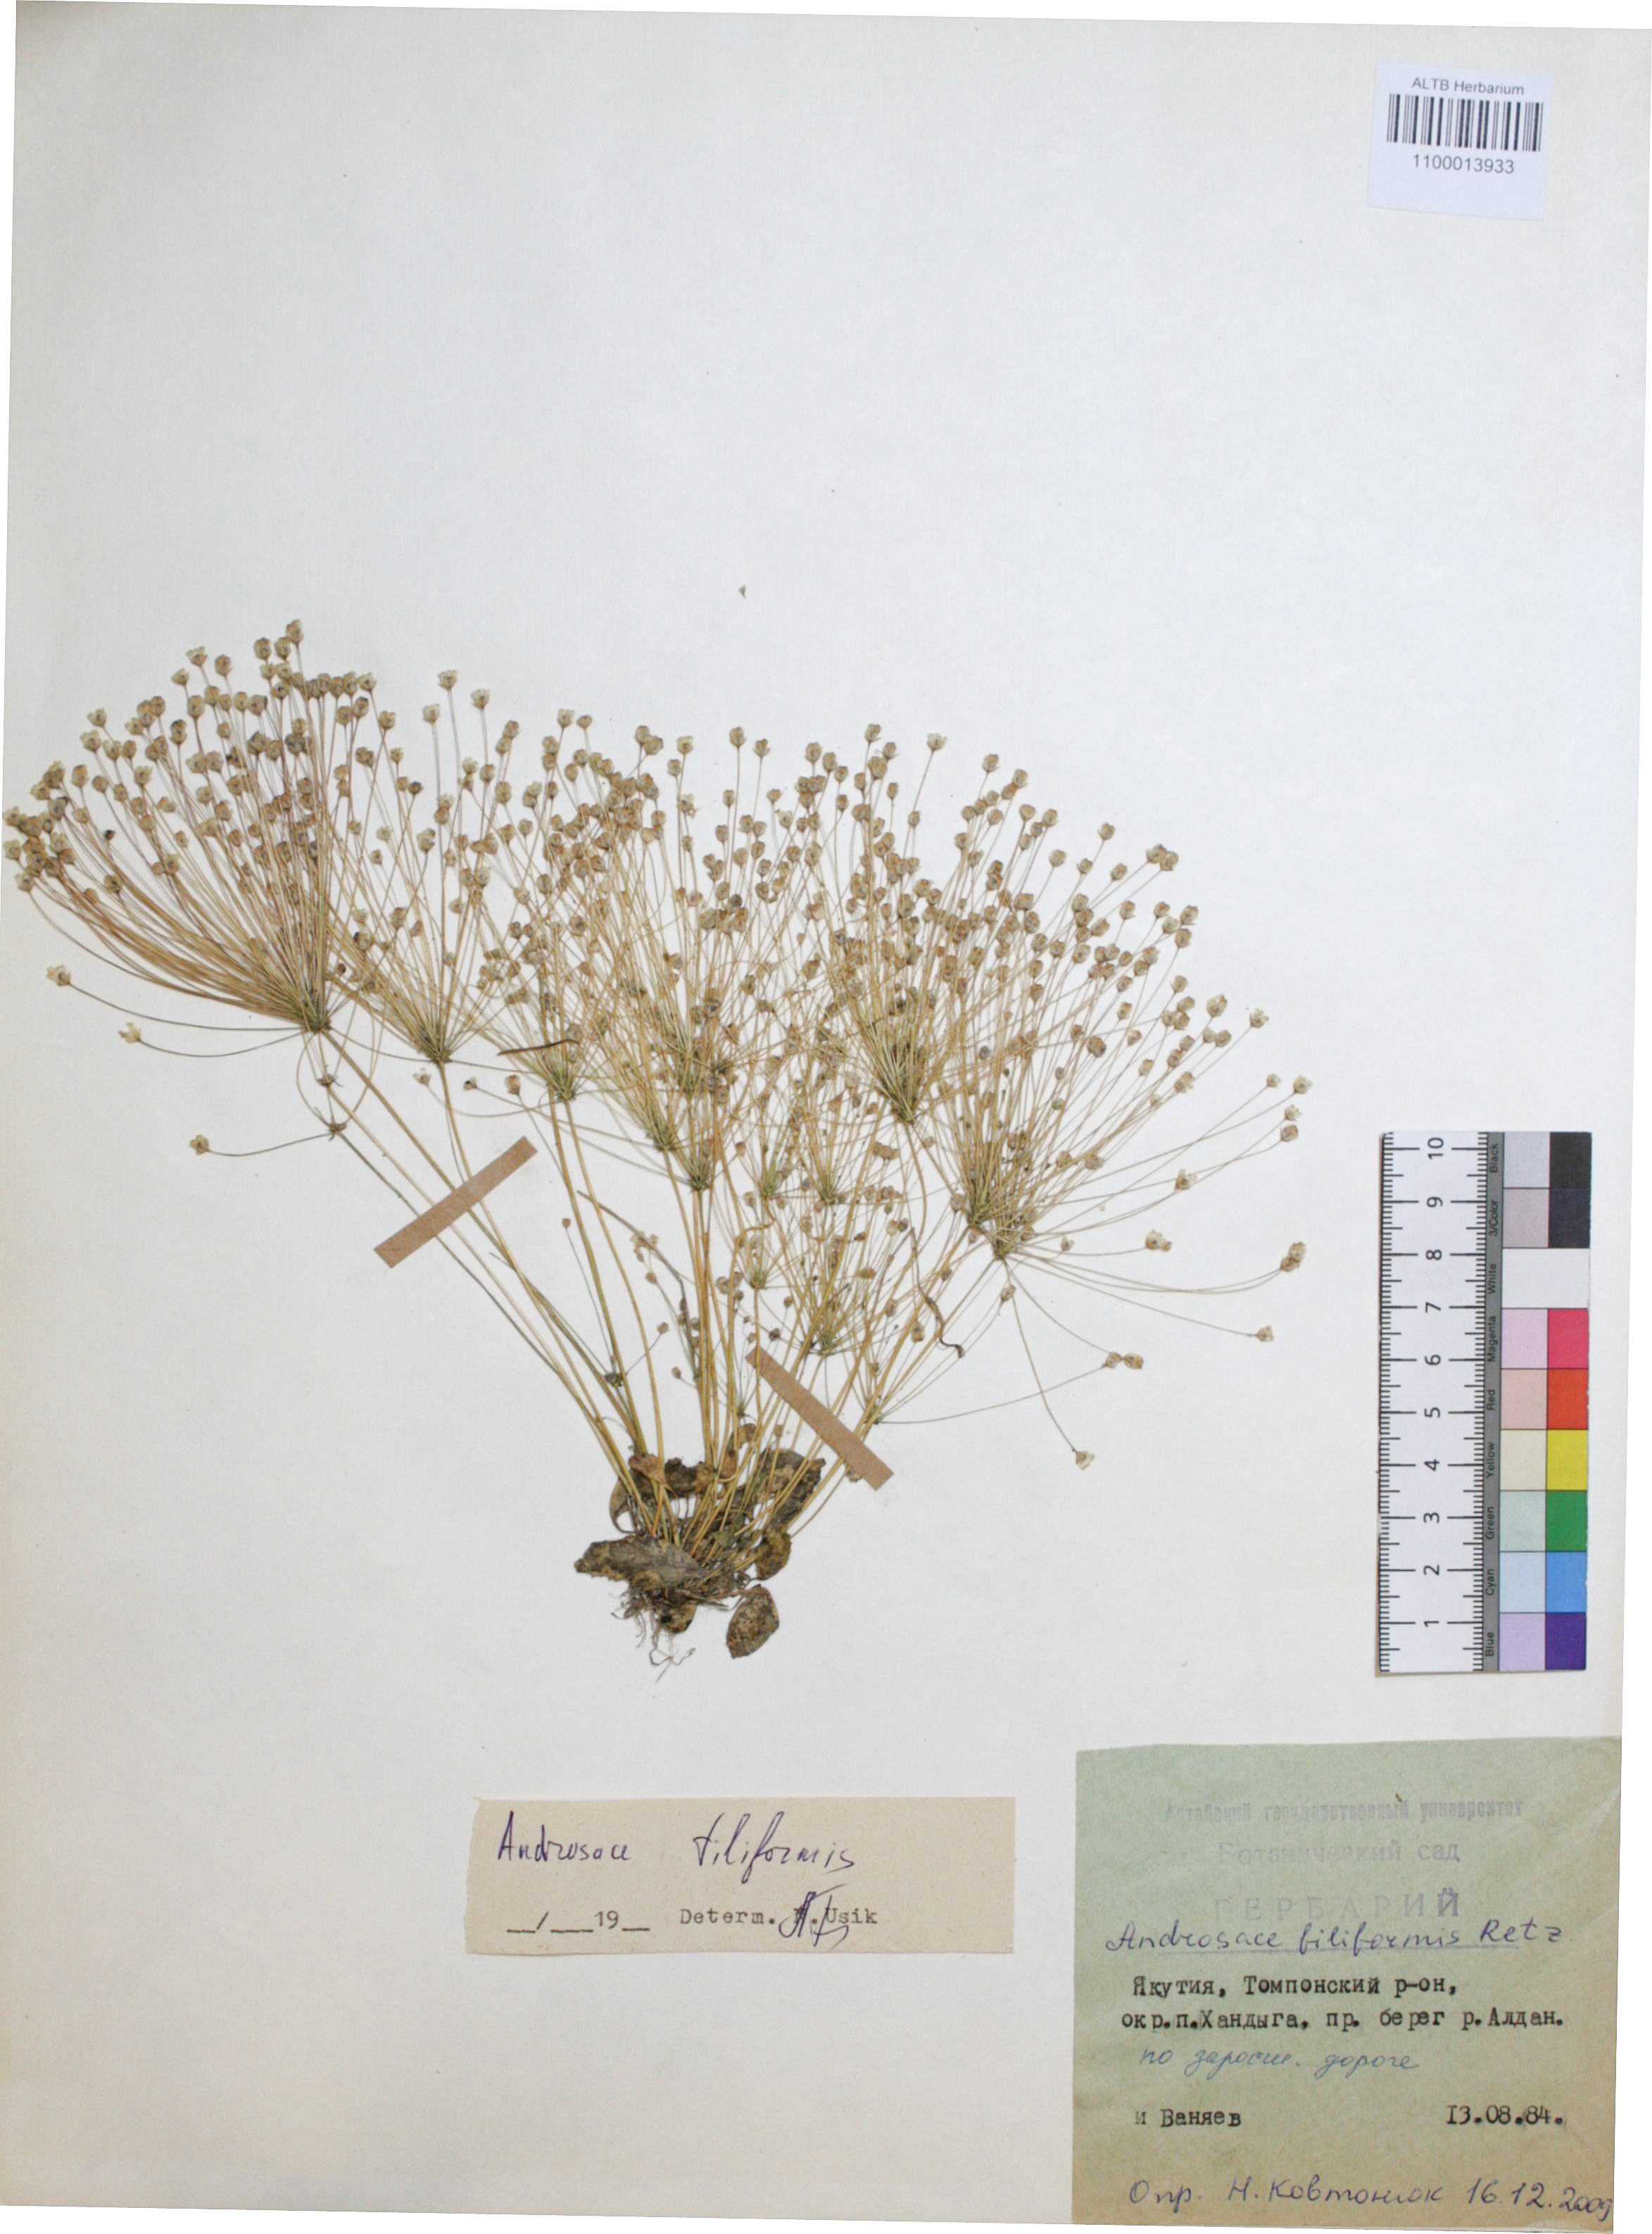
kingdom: Plantae
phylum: Tracheophyta
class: Magnoliopsida
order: Ericales
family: Primulaceae
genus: Androsace
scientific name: Androsace filiformis
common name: Filiform rock jasmine
